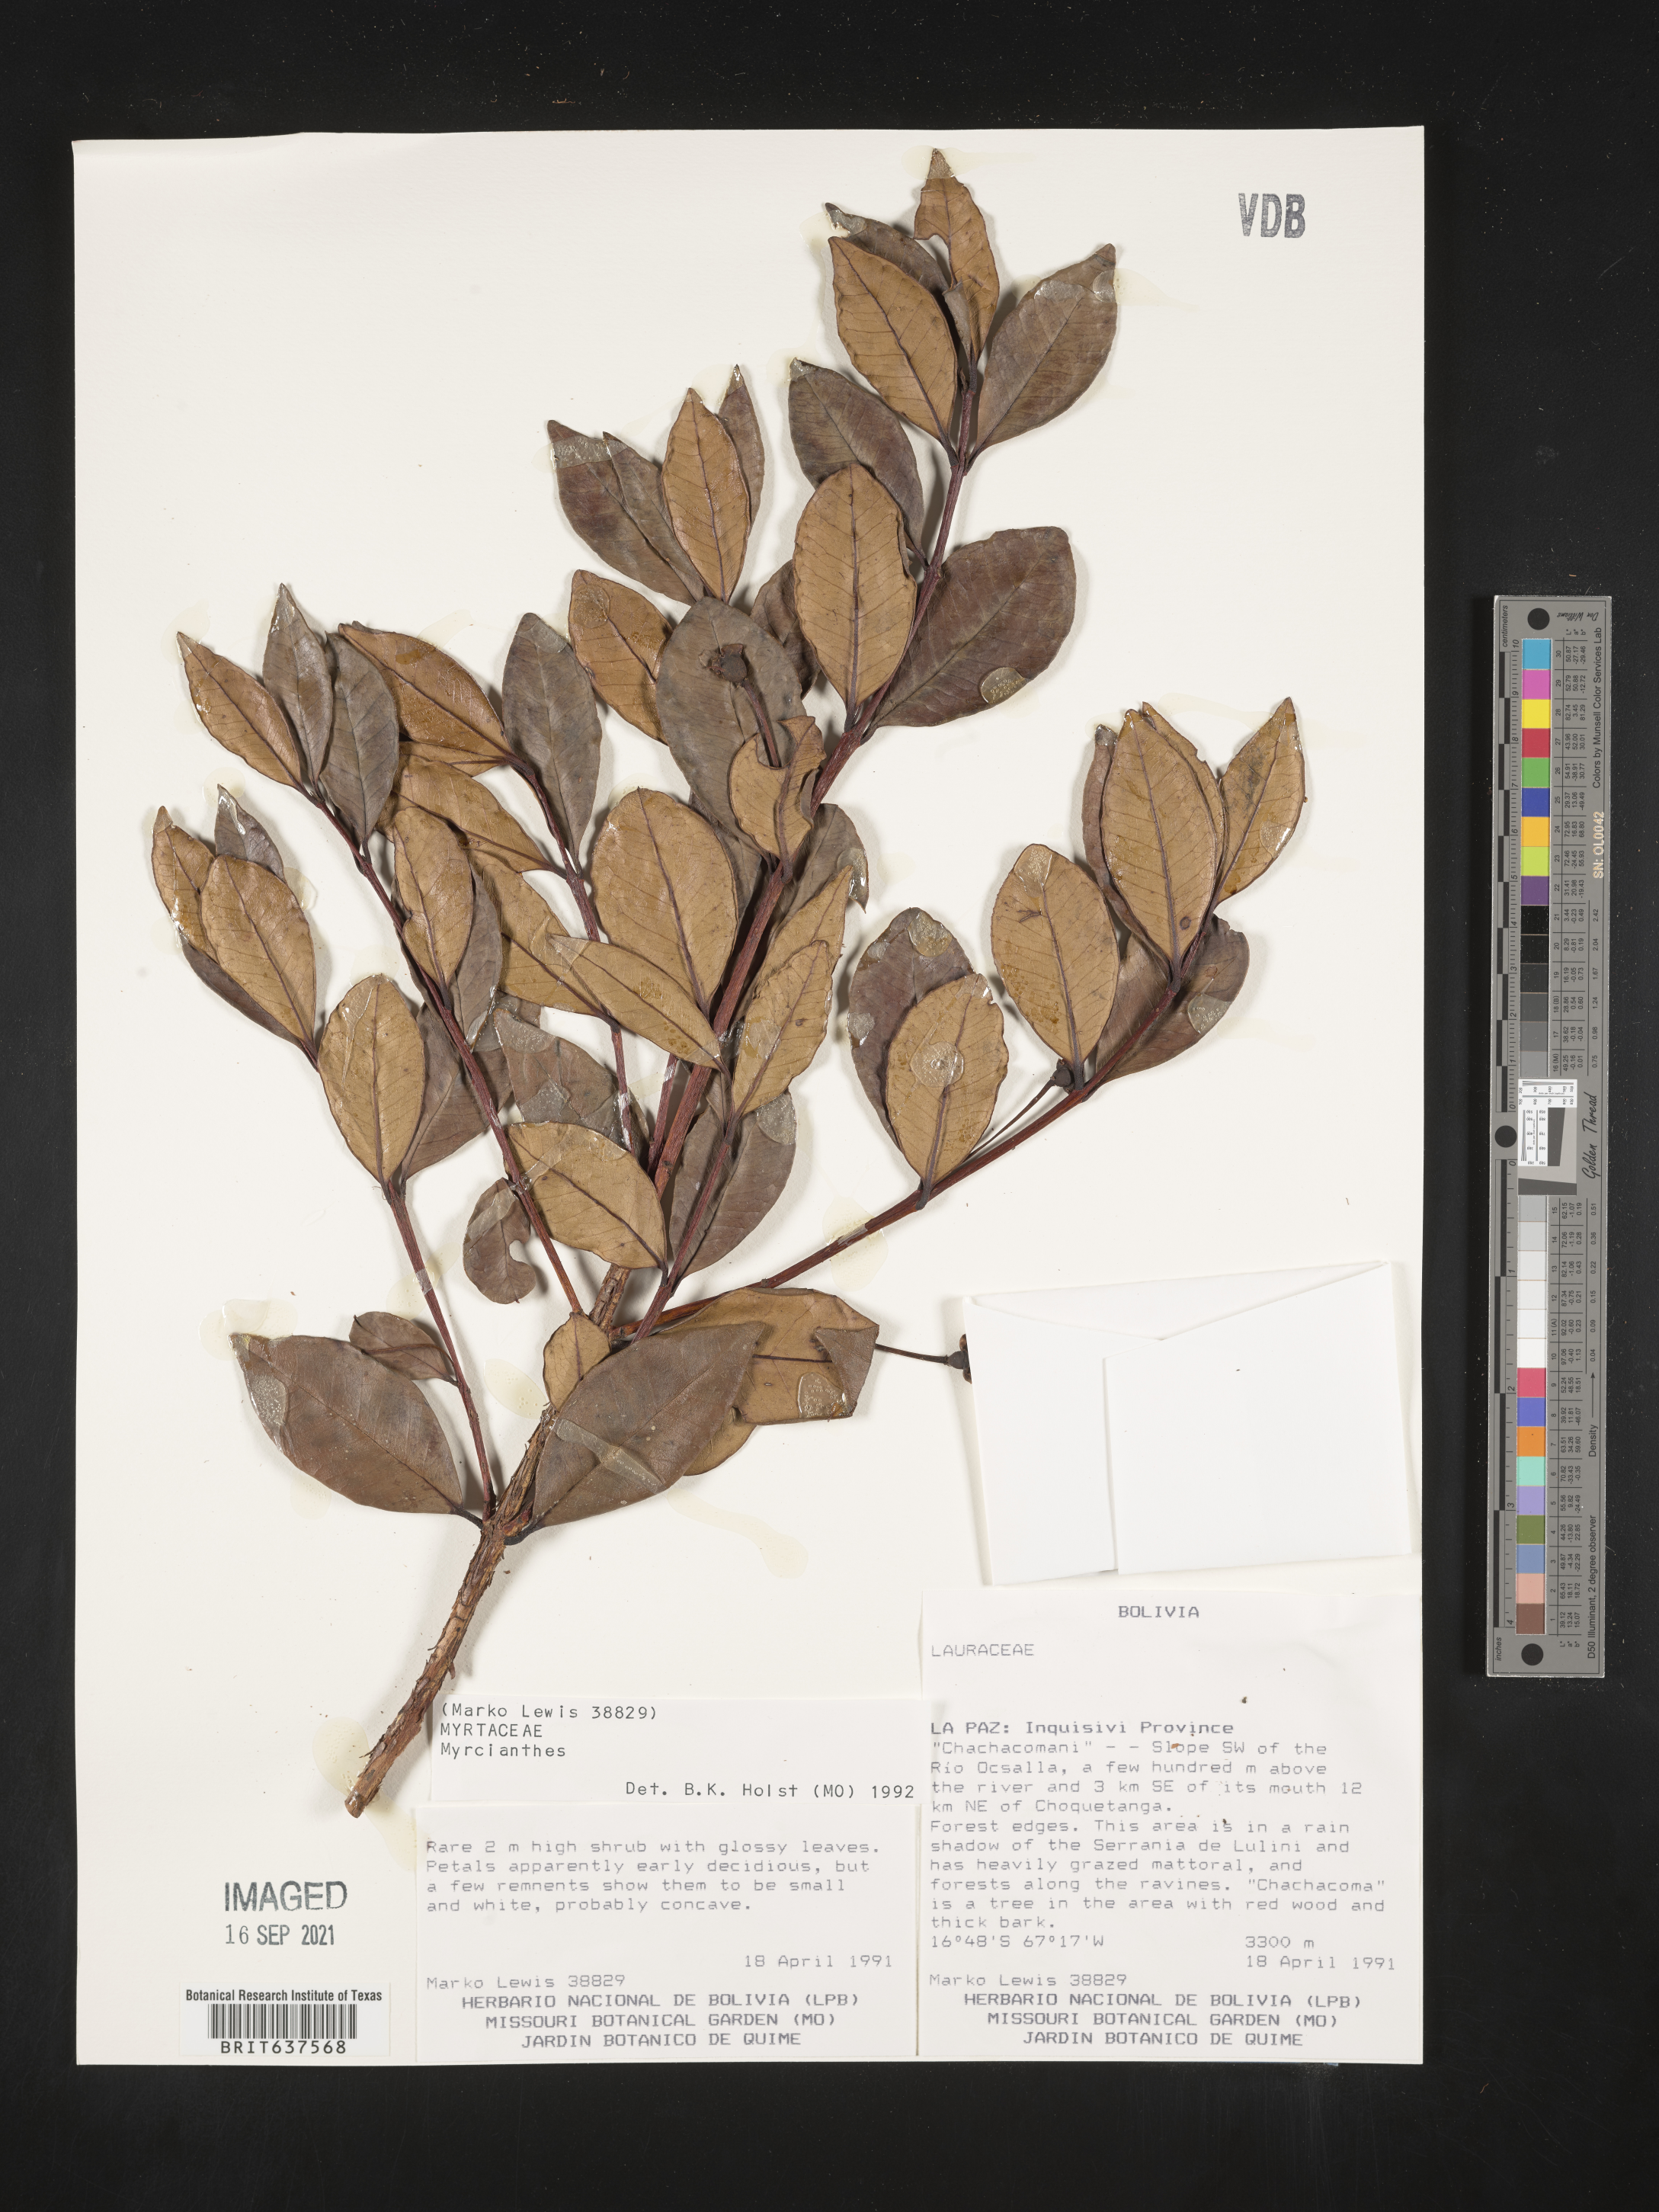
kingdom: Plantae
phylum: Tracheophyta
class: Magnoliopsida
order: Myrtales
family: Myrtaceae
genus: Myrcianthes
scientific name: Myrcianthes
